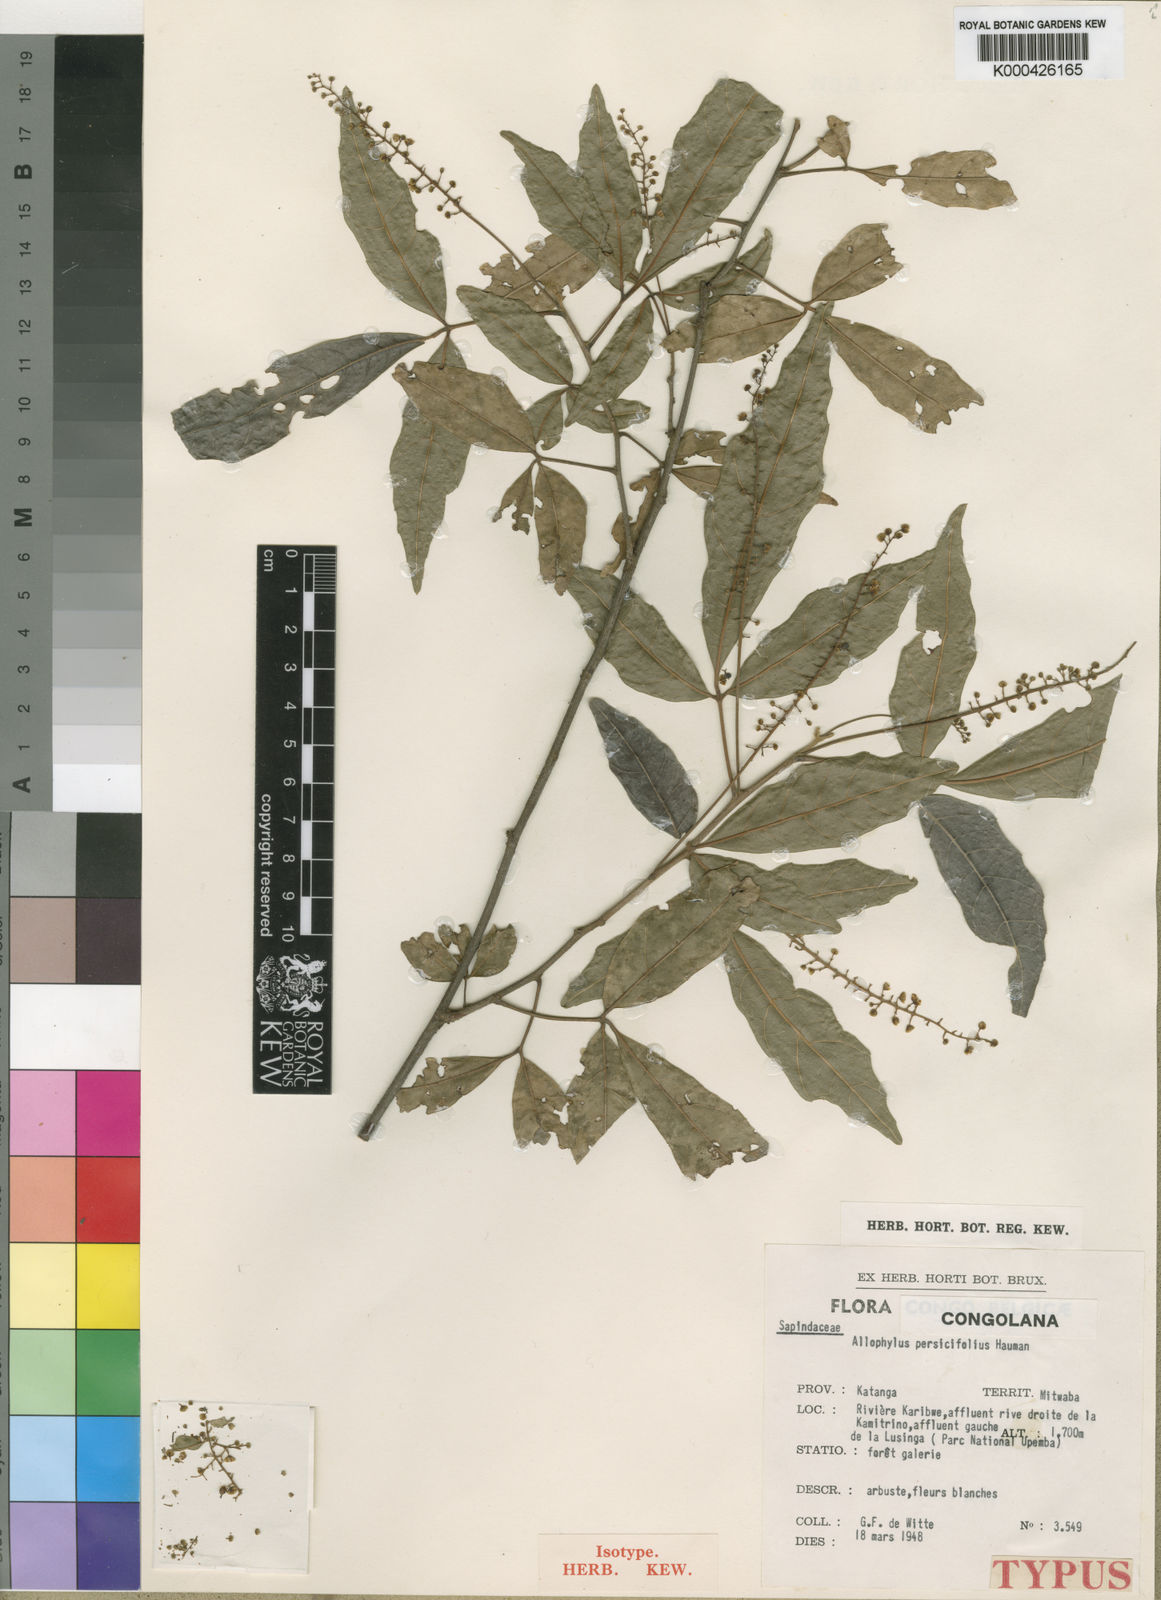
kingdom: Plantae
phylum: Tracheophyta
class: Magnoliopsida
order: Sapindales
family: Sapindaceae
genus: Allophylus
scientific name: Allophylus persicifolius
